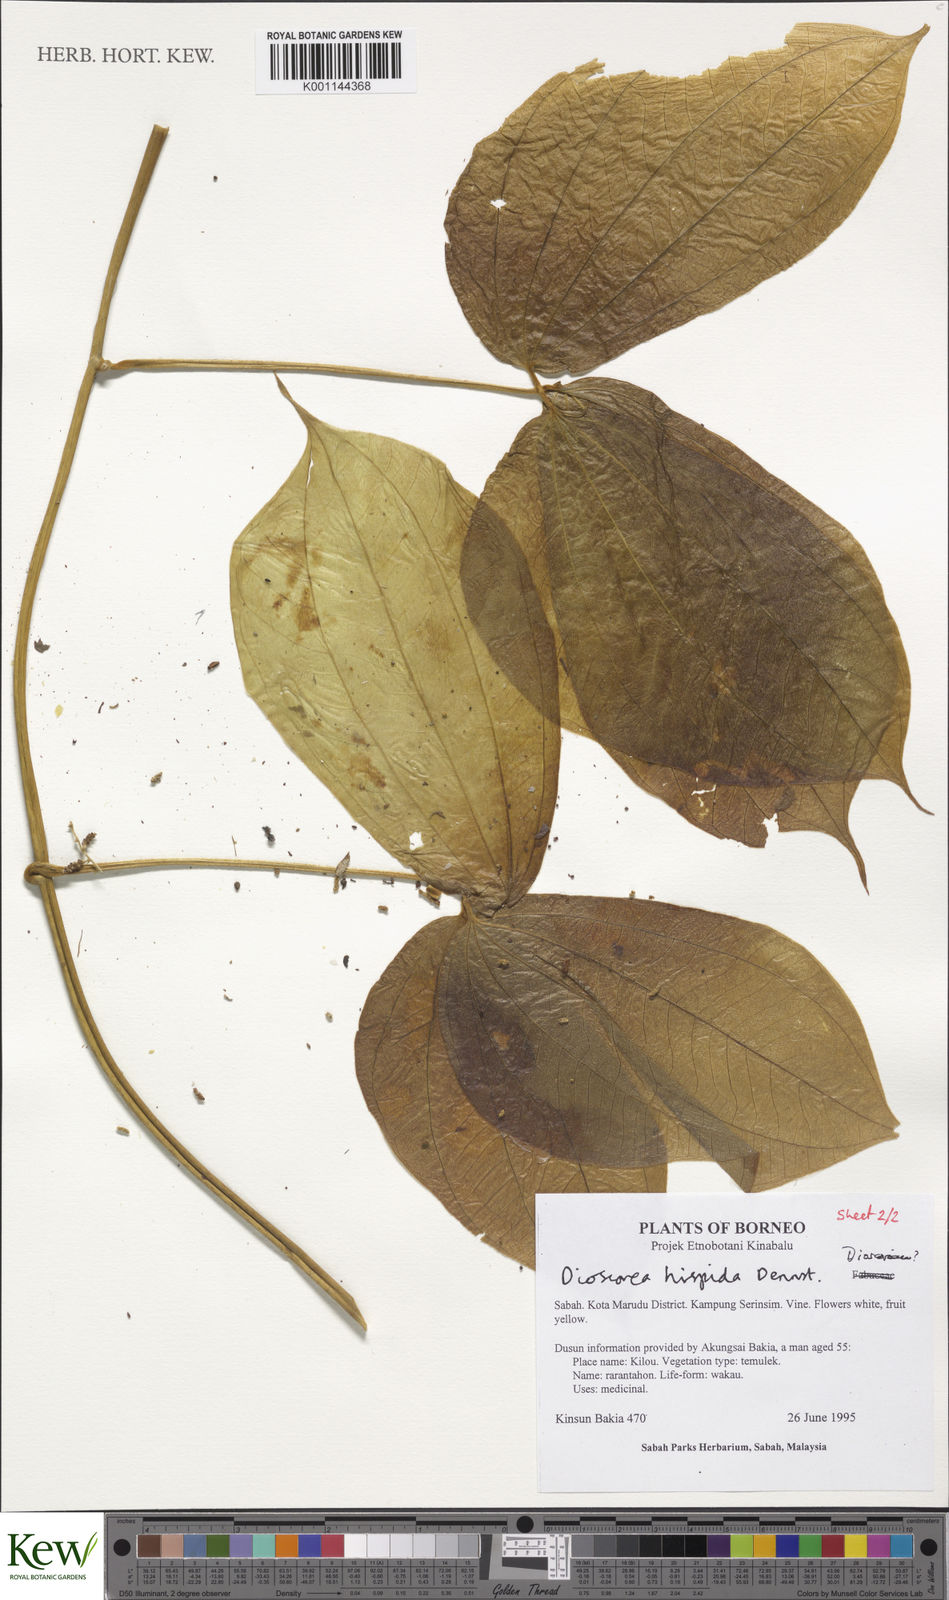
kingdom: Plantae
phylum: Tracheophyta
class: Liliopsida
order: Dioscoreales
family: Dioscoreaceae
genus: Dioscorea
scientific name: Dioscorea hispida
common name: Asiatic bitter yam
